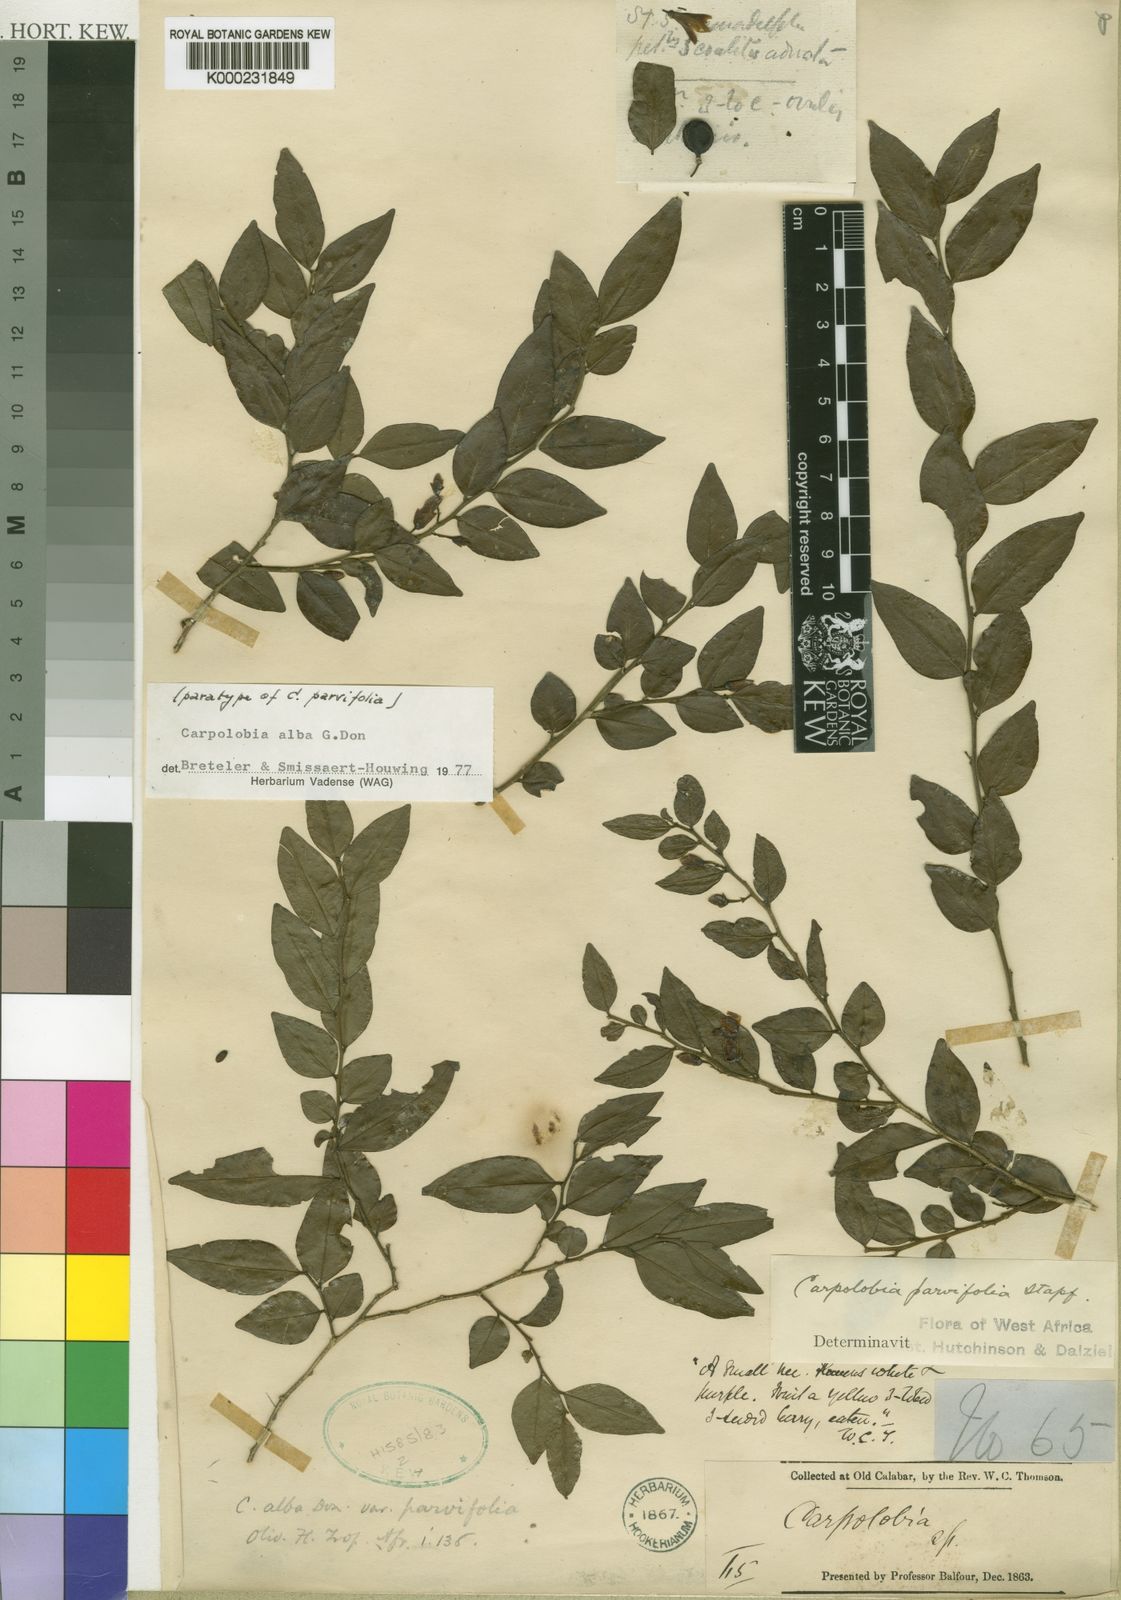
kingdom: Plantae
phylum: Tracheophyta
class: Magnoliopsida
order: Fabales
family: Polygalaceae
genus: Carpolobia
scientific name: Carpolobia alba
